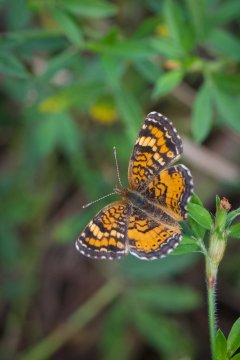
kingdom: Animalia
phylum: Arthropoda
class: Insecta
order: Lepidoptera
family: Nymphalidae
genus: Phyciodes
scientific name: Phyciodes phaon
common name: Phaon Crescent
